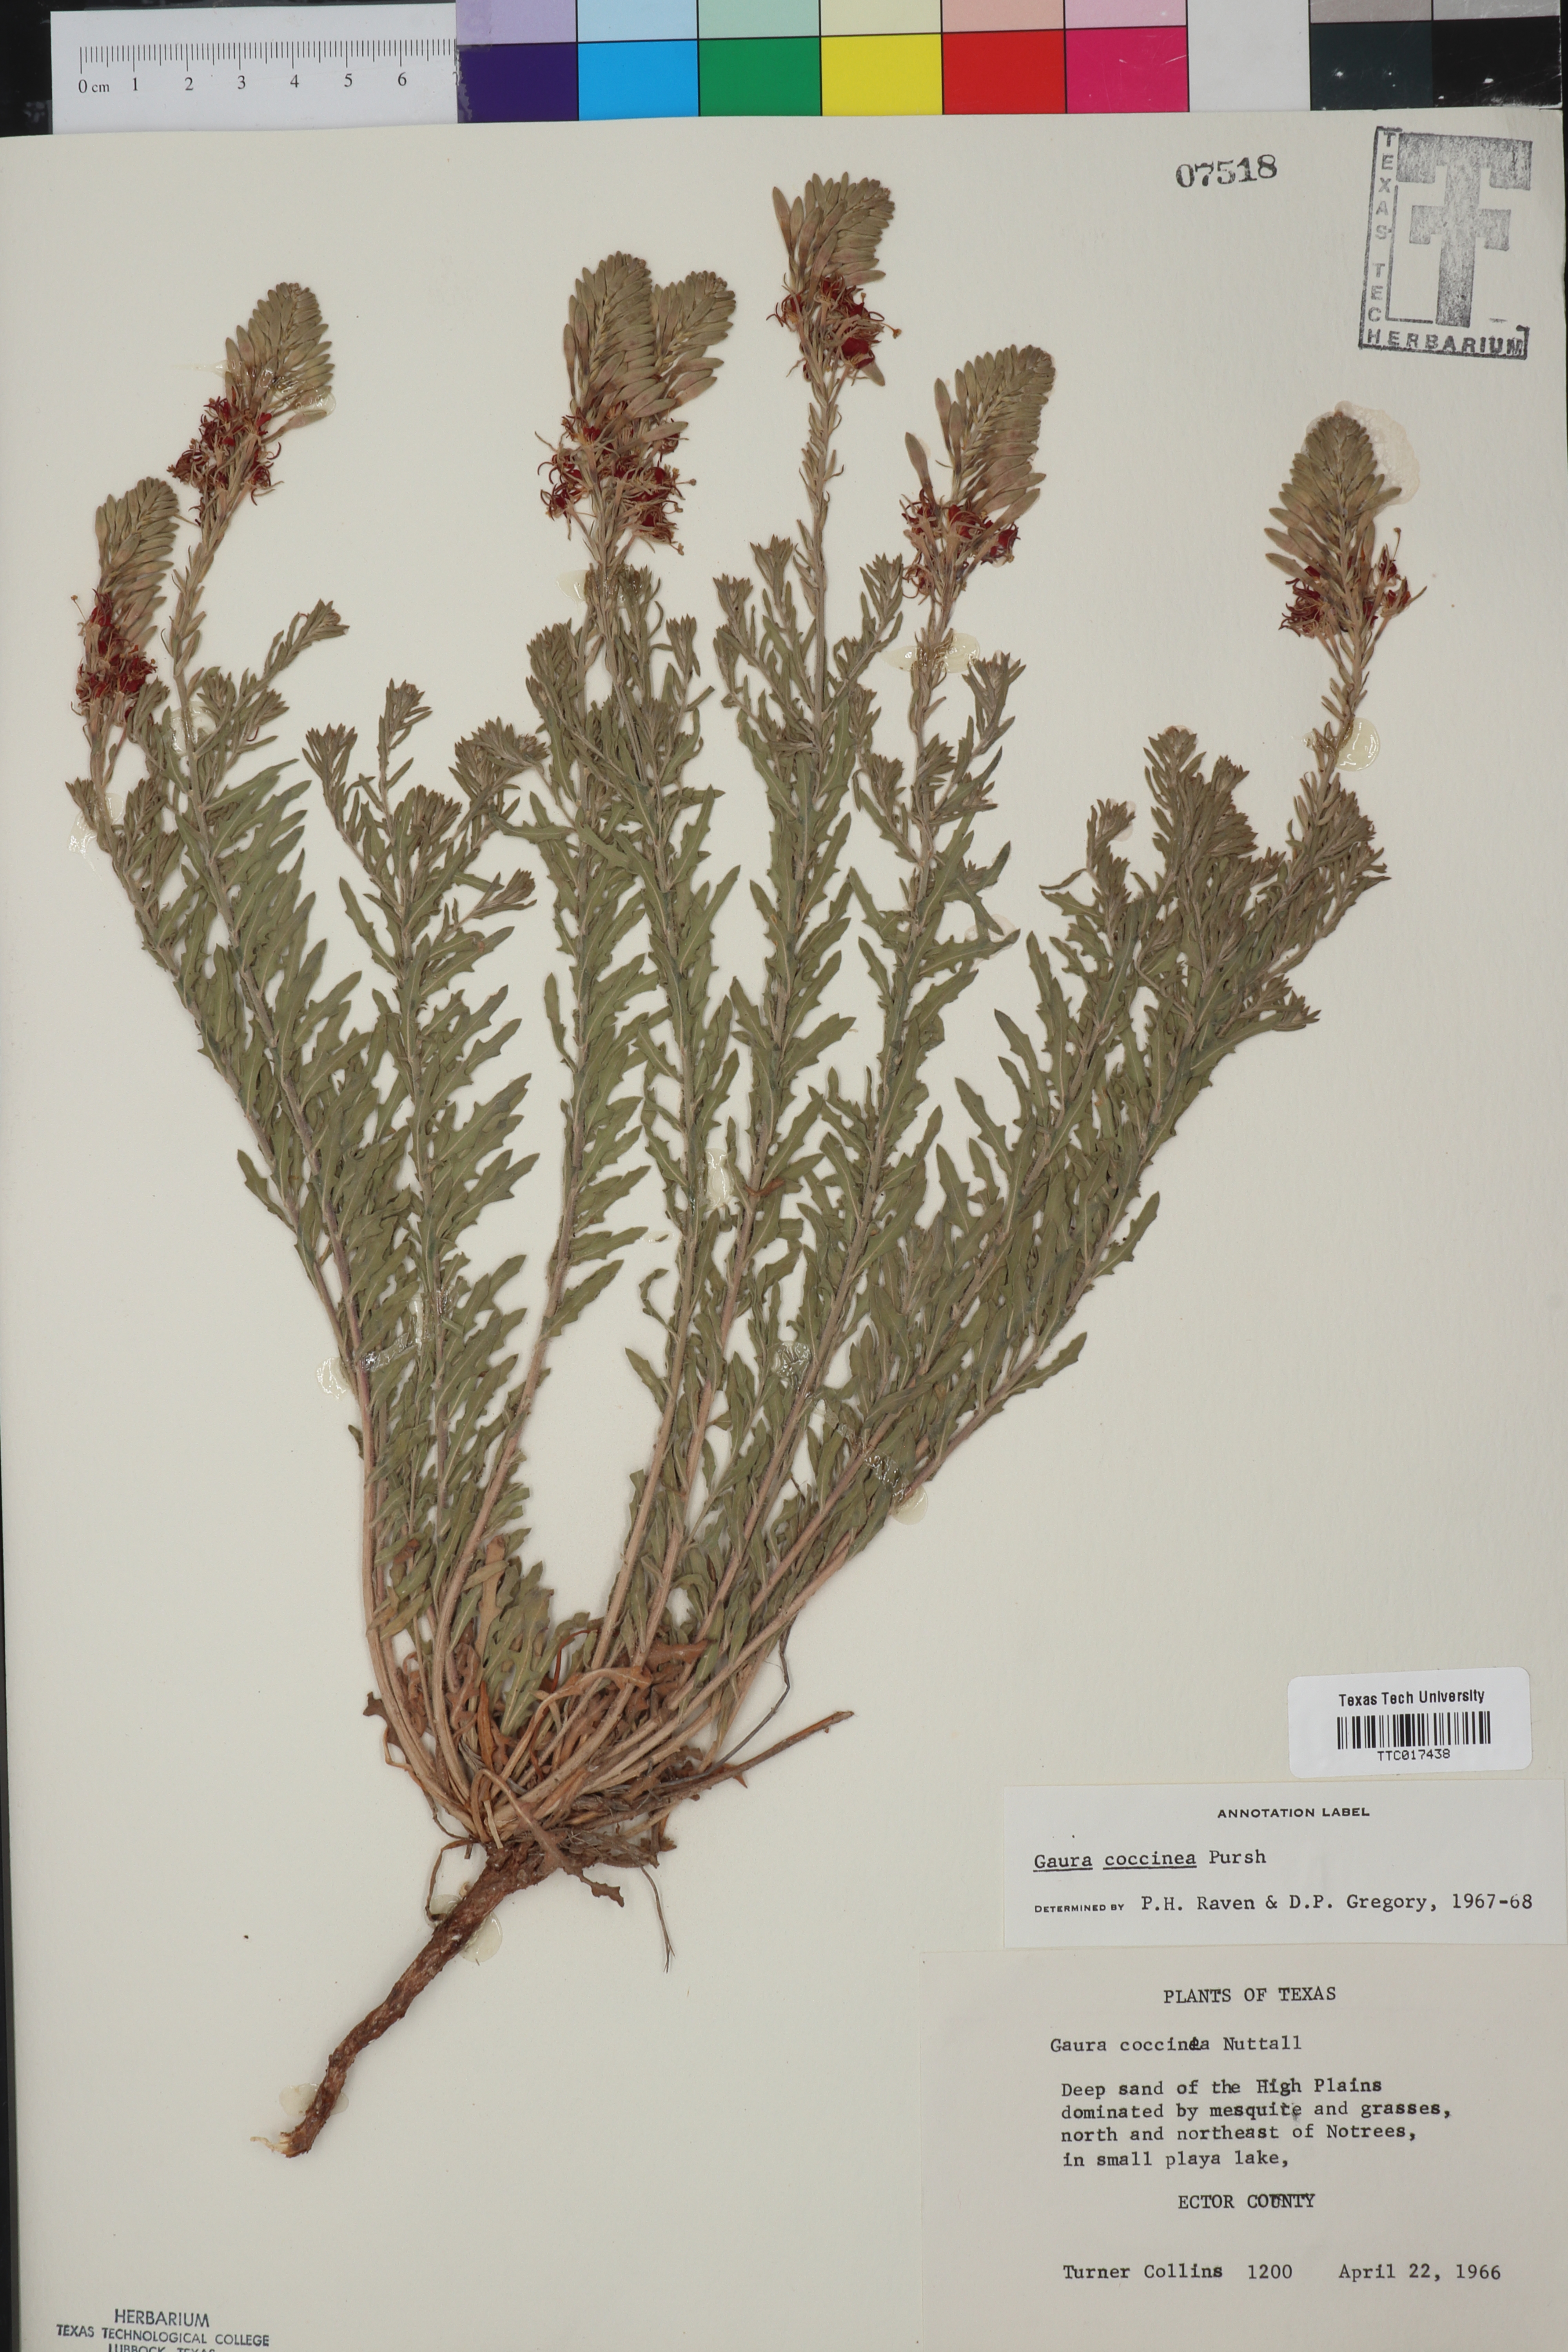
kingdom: Plantae
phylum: Tracheophyta
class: Magnoliopsida
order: Myrtales
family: Onagraceae
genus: Oenothera
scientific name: Oenothera suffrutescens
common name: Scarlet beeblossom
